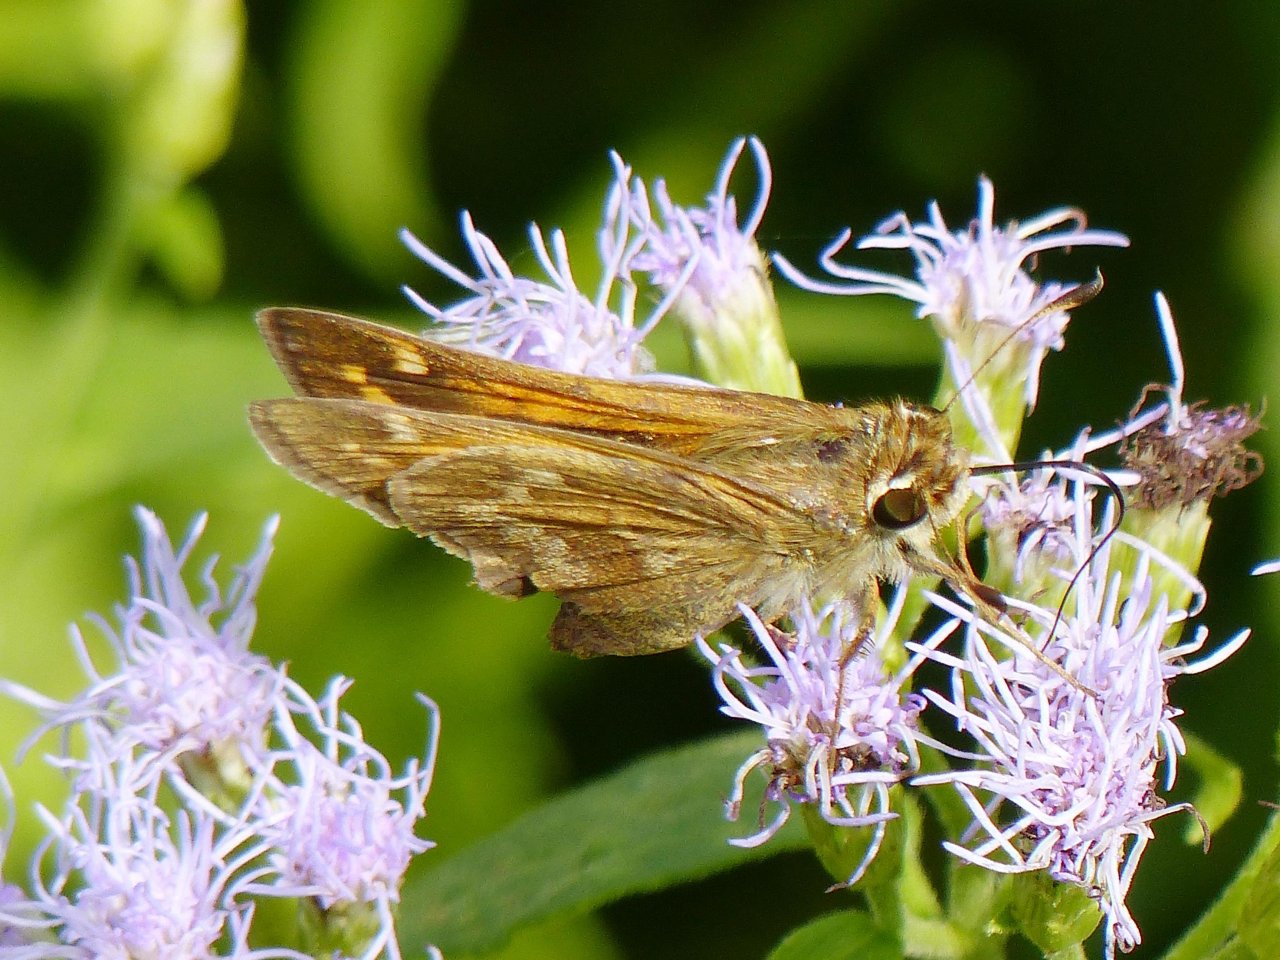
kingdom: Animalia
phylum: Arthropoda
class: Insecta
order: Lepidoptera
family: Hesperiidae
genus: Atalopedes
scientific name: Atalopedes campestris
